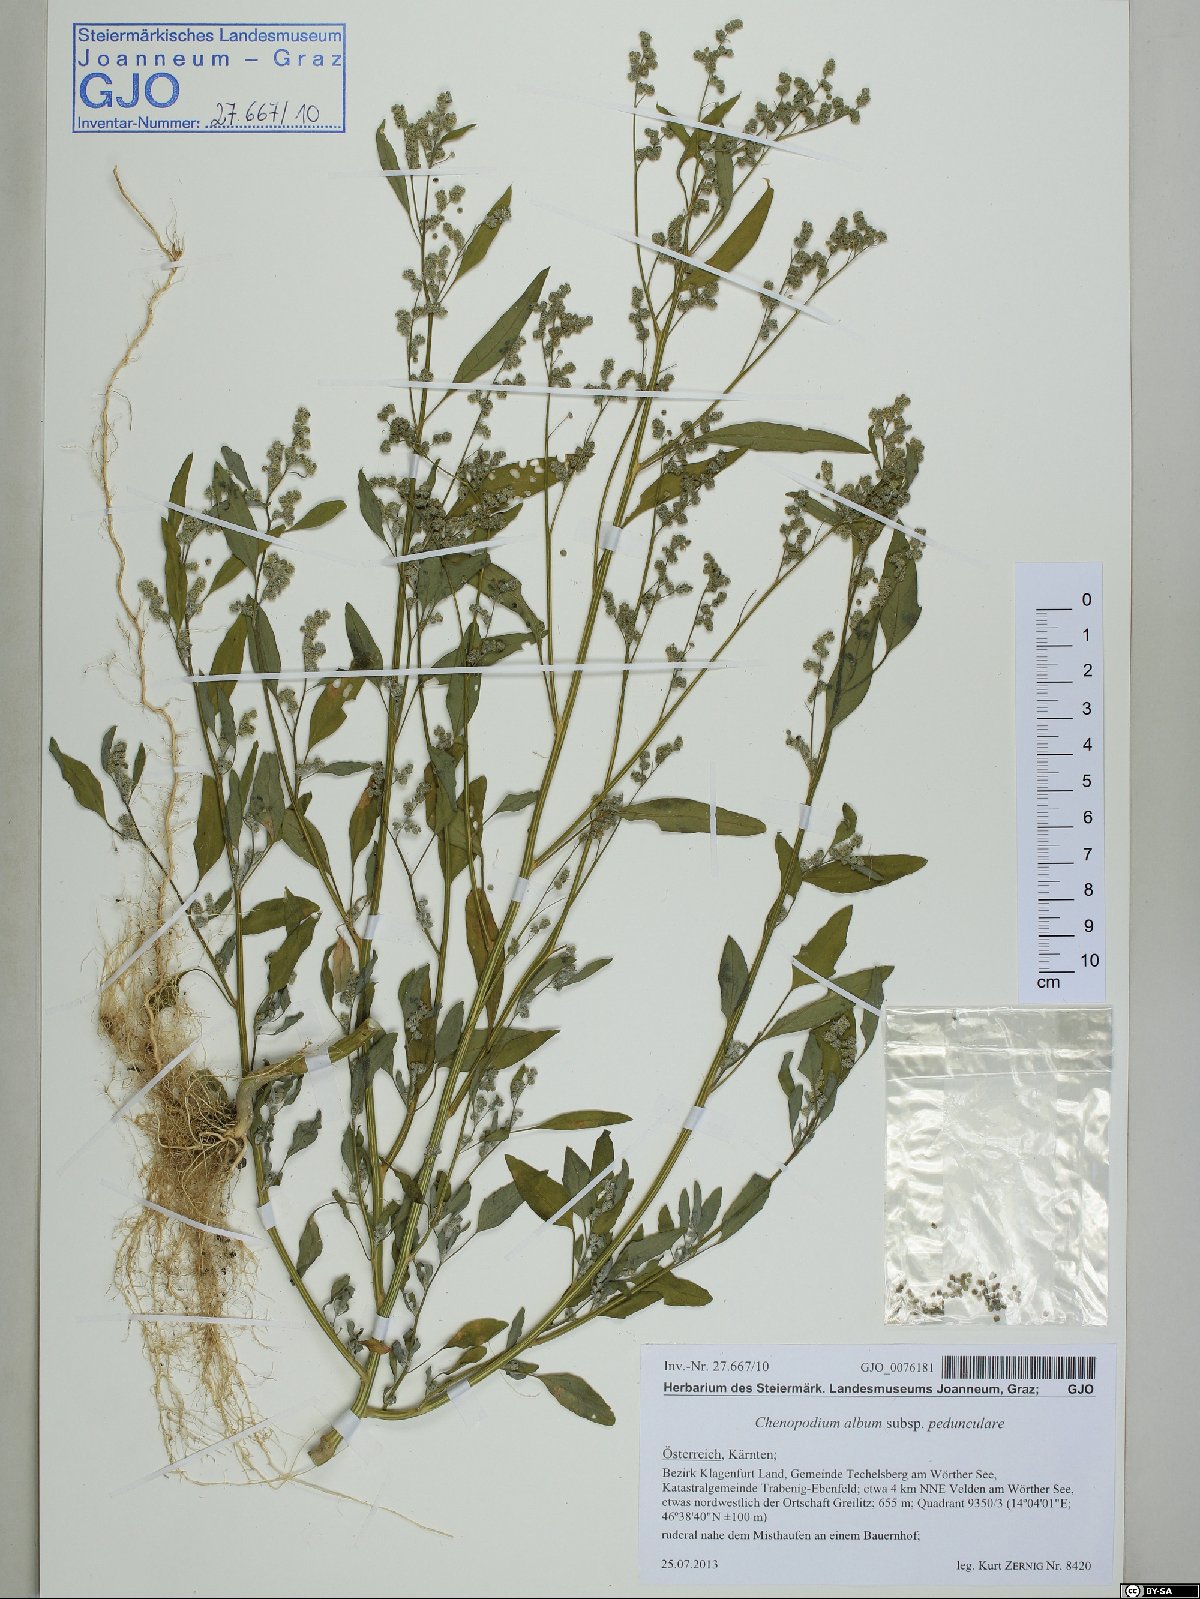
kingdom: Plantae
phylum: Tracheophyta
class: Magnoliopsida
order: Caryophyllales
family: Amaranthaceae
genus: Chenopodium
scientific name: Chenopodium album
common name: Fat-hen
